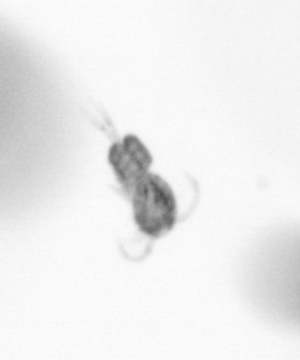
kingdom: Animalia
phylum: Arthropoda
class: Copepoda
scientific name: Copepoda
